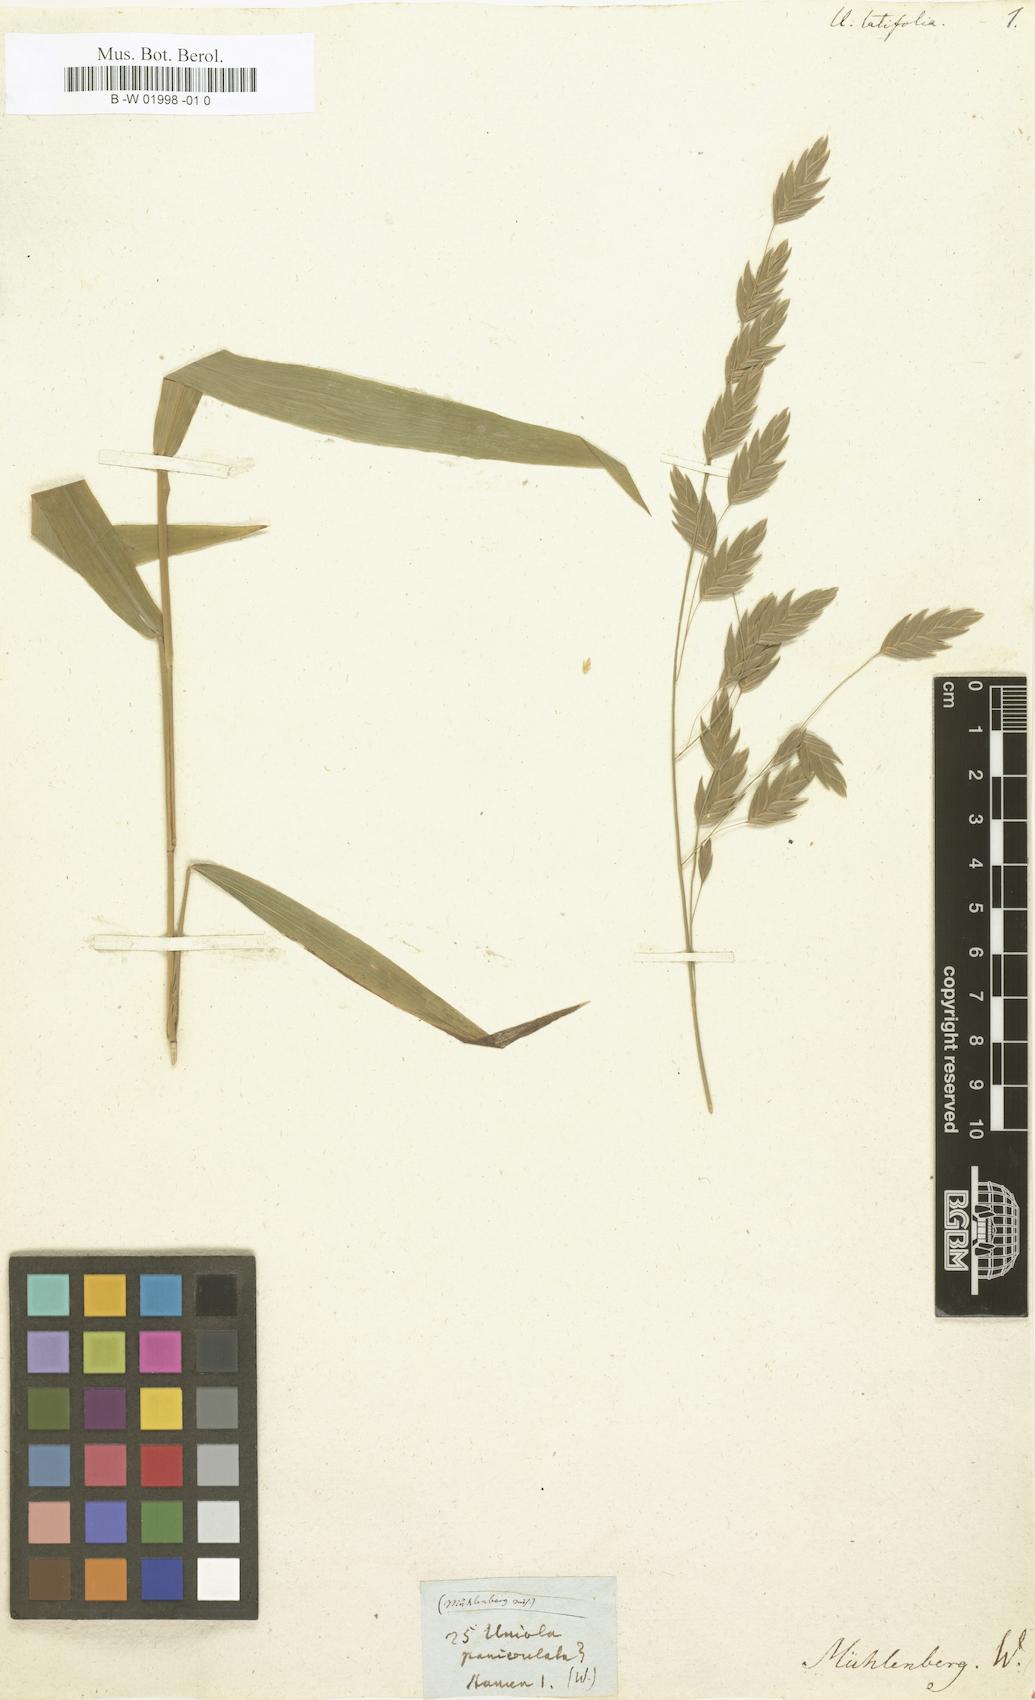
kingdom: Plantae
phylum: Tracheophyta
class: Liliopsida
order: Poales
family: Poaceae
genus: Chasmanthium
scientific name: Chasmanthium latifolium
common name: Broad-leaved chasmanthium
